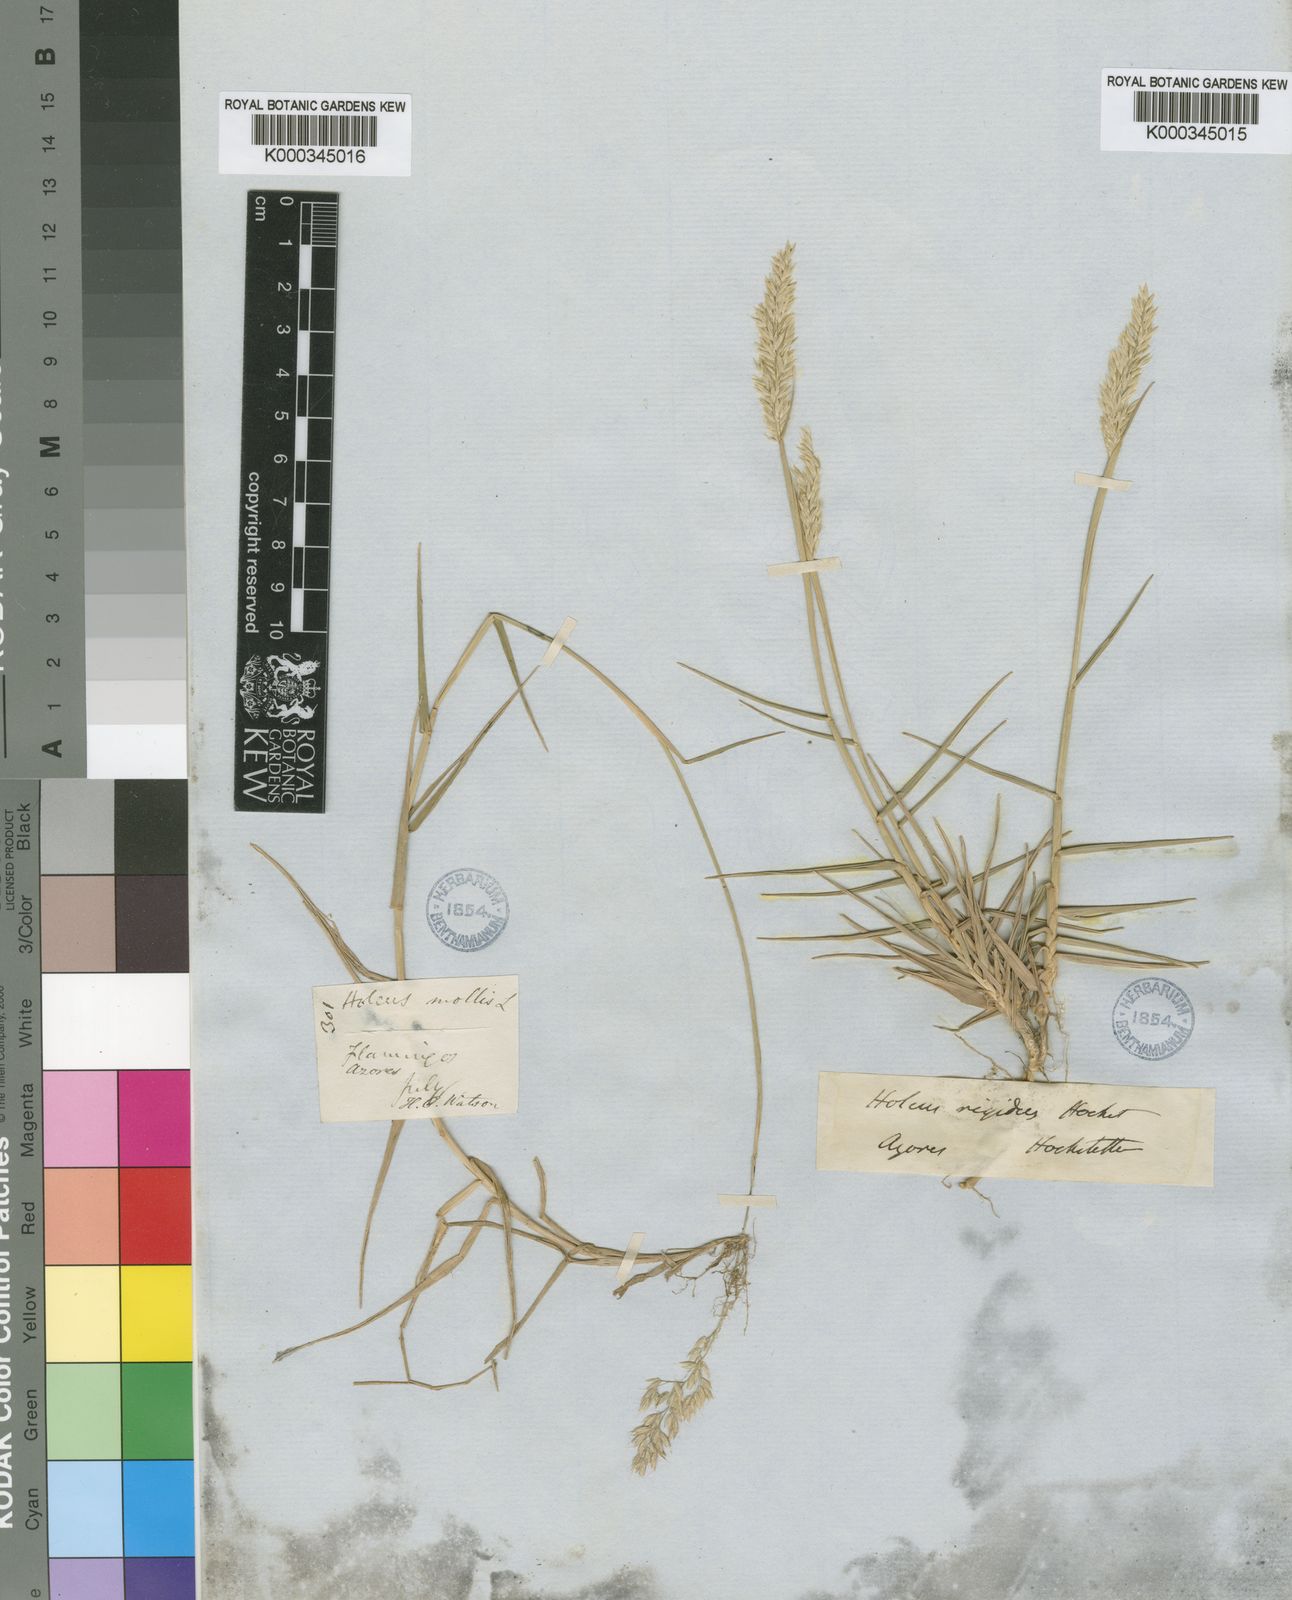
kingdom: Plantae
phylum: Tracheophyta
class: Liliopsida
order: Poales
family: Poaceae
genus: Holcus
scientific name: Holcus rigidus
